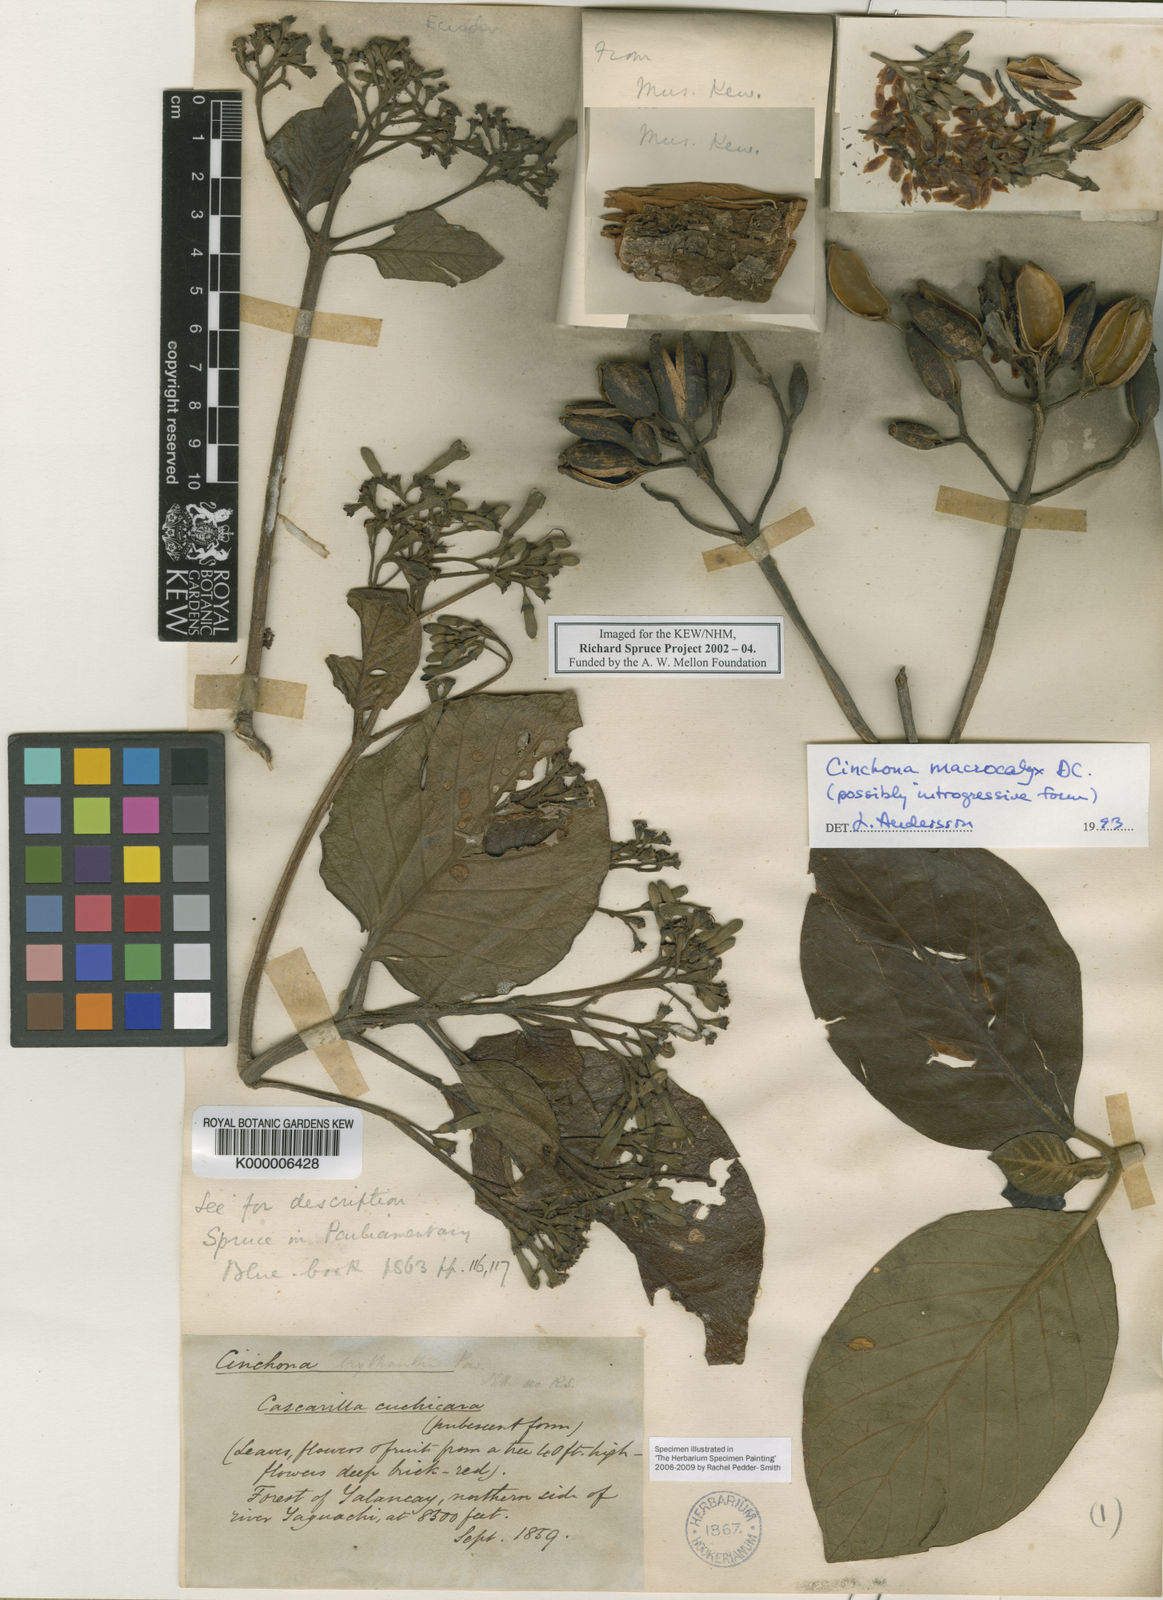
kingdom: Plantae
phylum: Tracheophyta
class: Magnoliopsida
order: Gentianales
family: Rubiaceae
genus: Cinchona
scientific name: Cinchona macrocalyx
